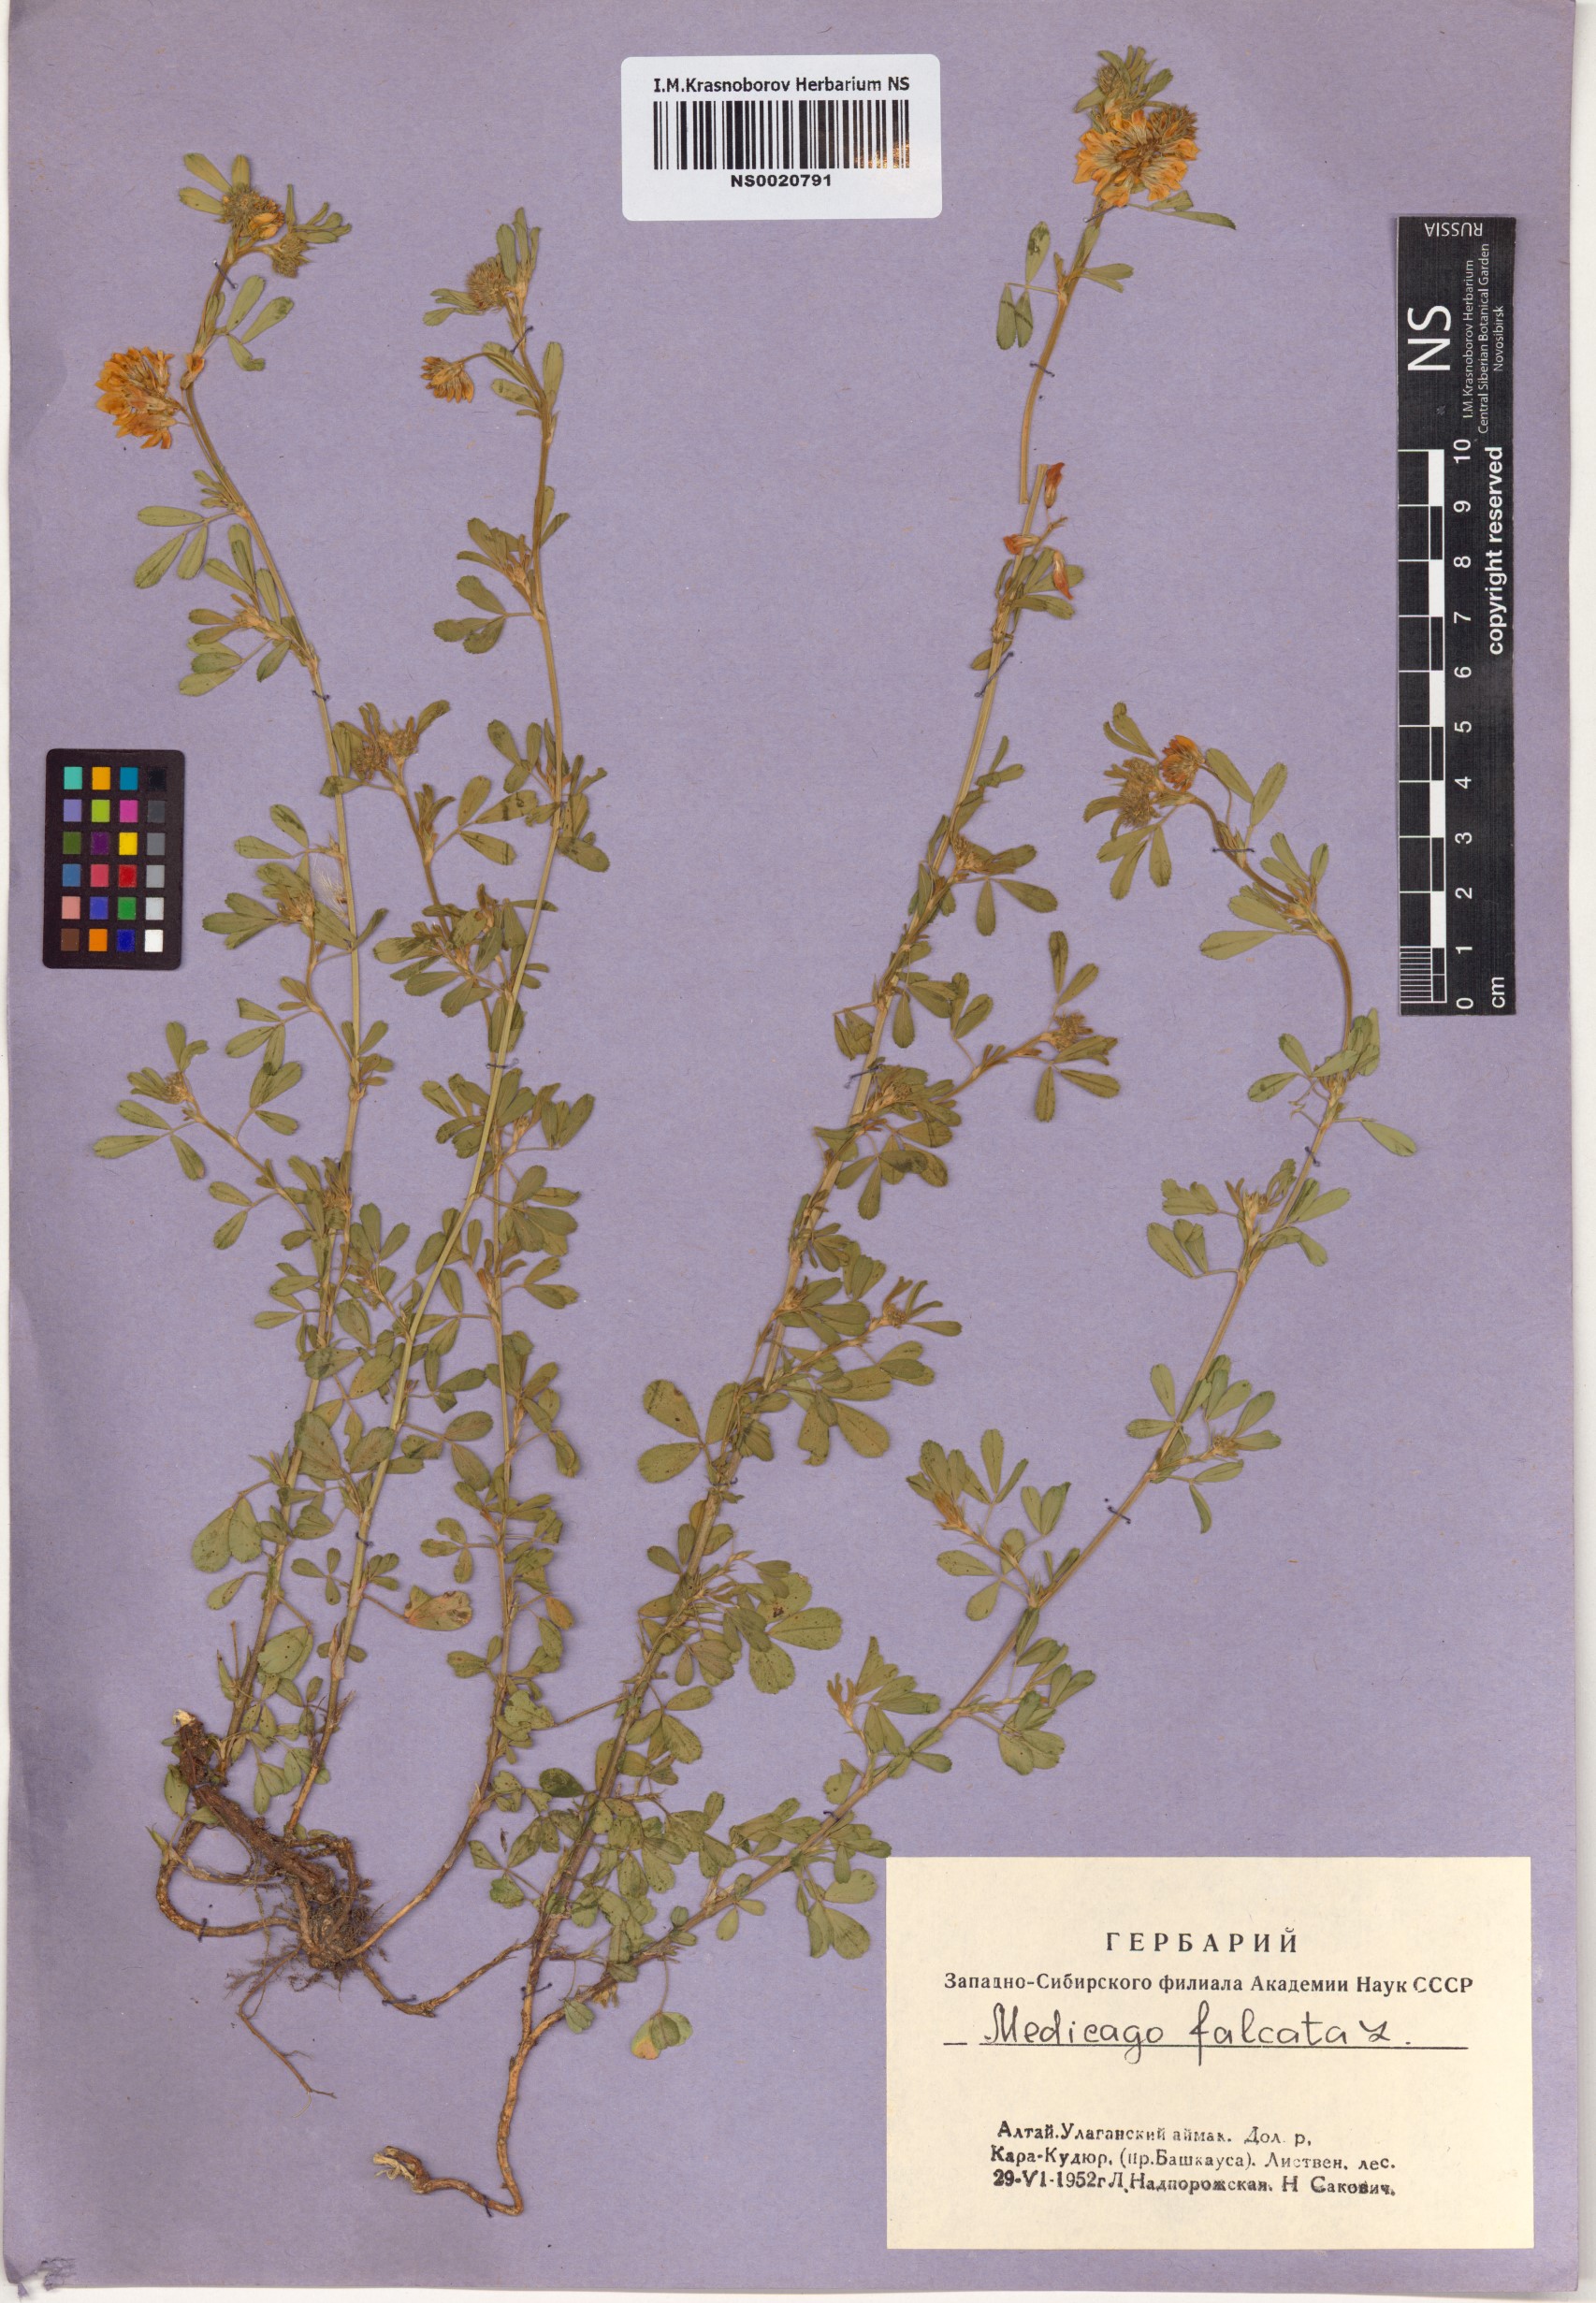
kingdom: Plantae
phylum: Tracheophyta
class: Magnoliopsida
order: Fabales
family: Fabaceae
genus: Medicago
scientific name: Medicago falcata
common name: Sickle medick
